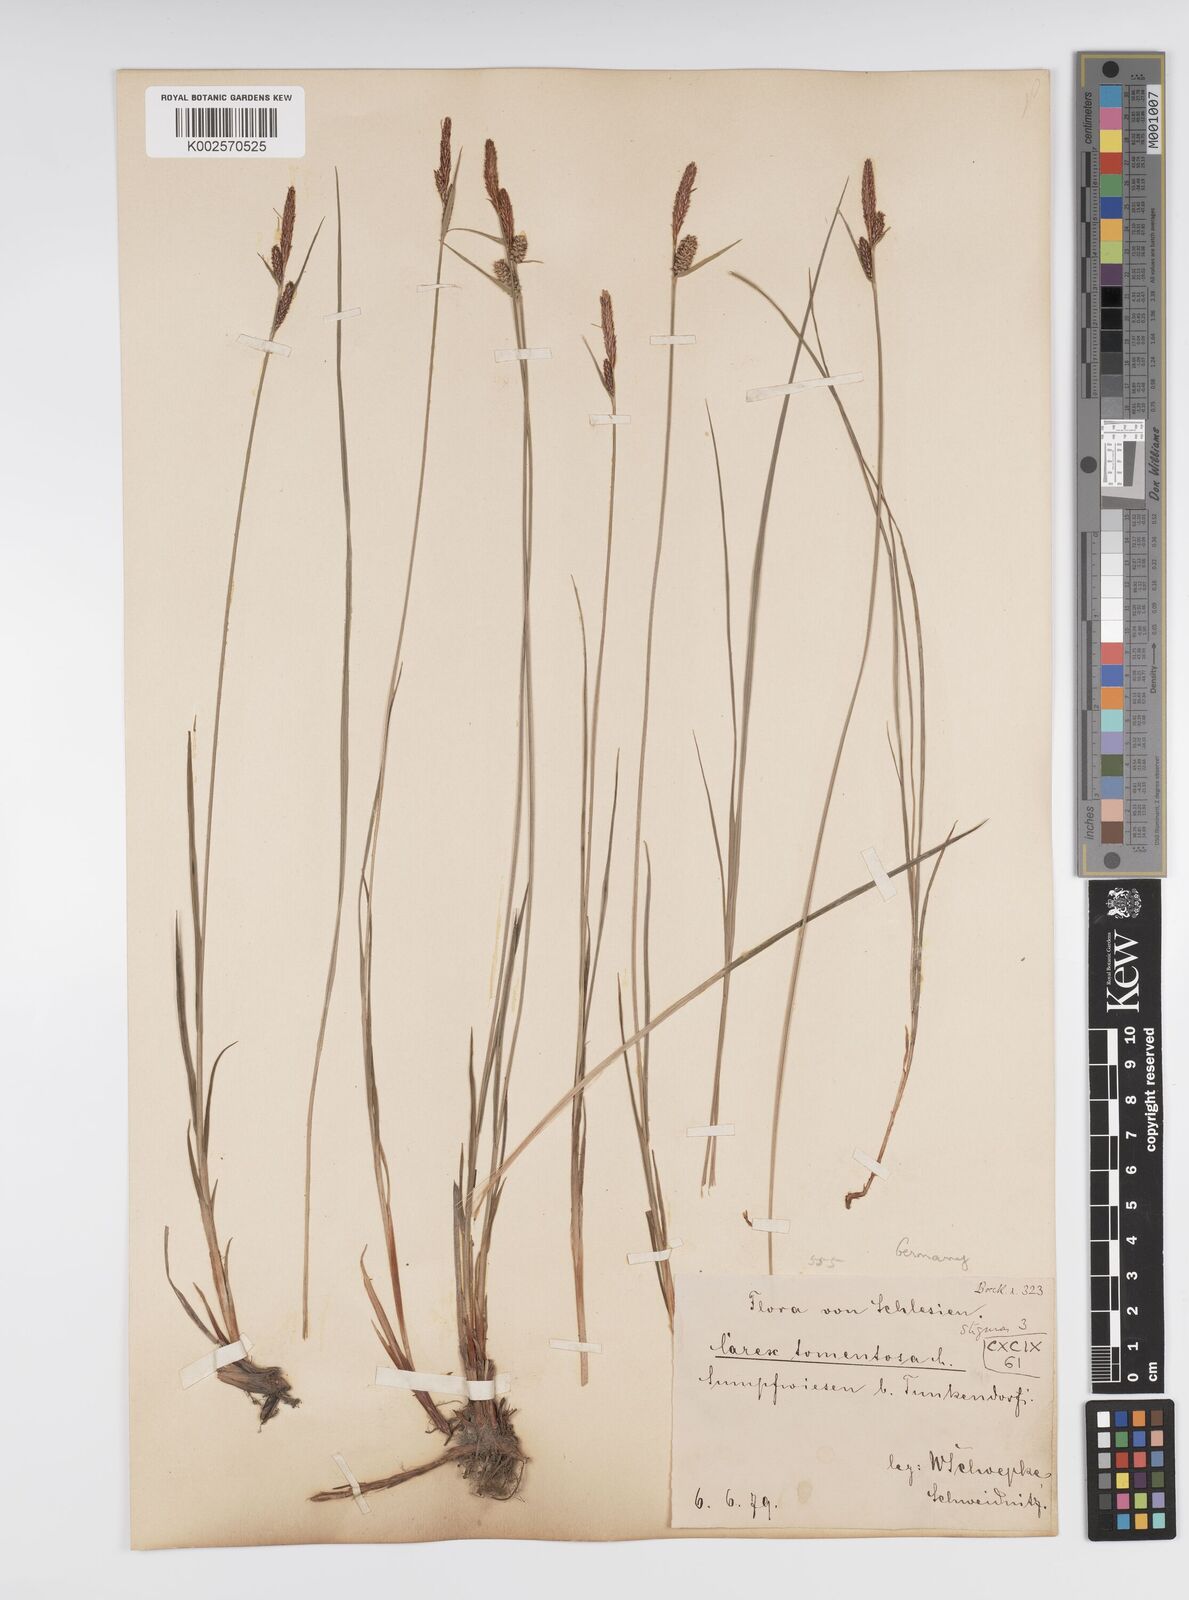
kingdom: Plantae
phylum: Tracheophyta
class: Liliopsida
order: Poales
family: Cyperaceae
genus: Carex
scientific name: Carex montana
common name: Soft-leaved sedge
